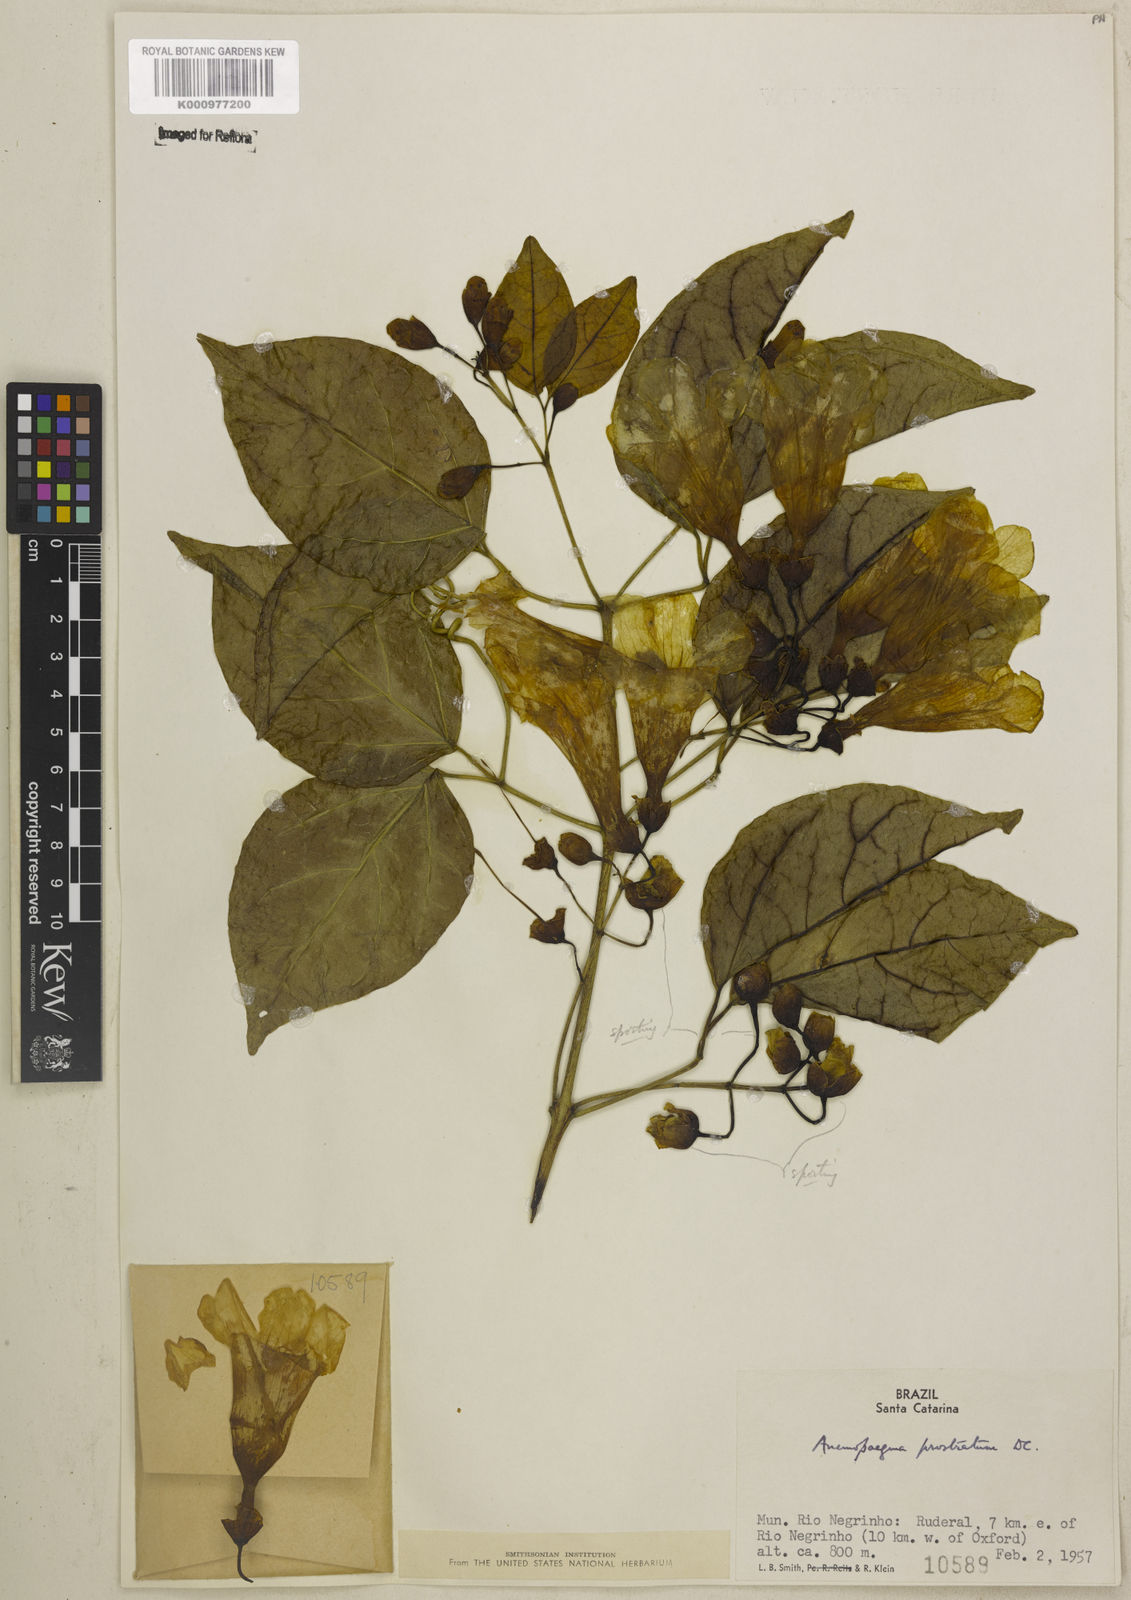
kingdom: Plantae
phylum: Tracheophyta
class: Magnoliopsida
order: Lamiales
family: Bignoniaceae
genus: Anemopaegma
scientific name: Anemopaegma prostratum
